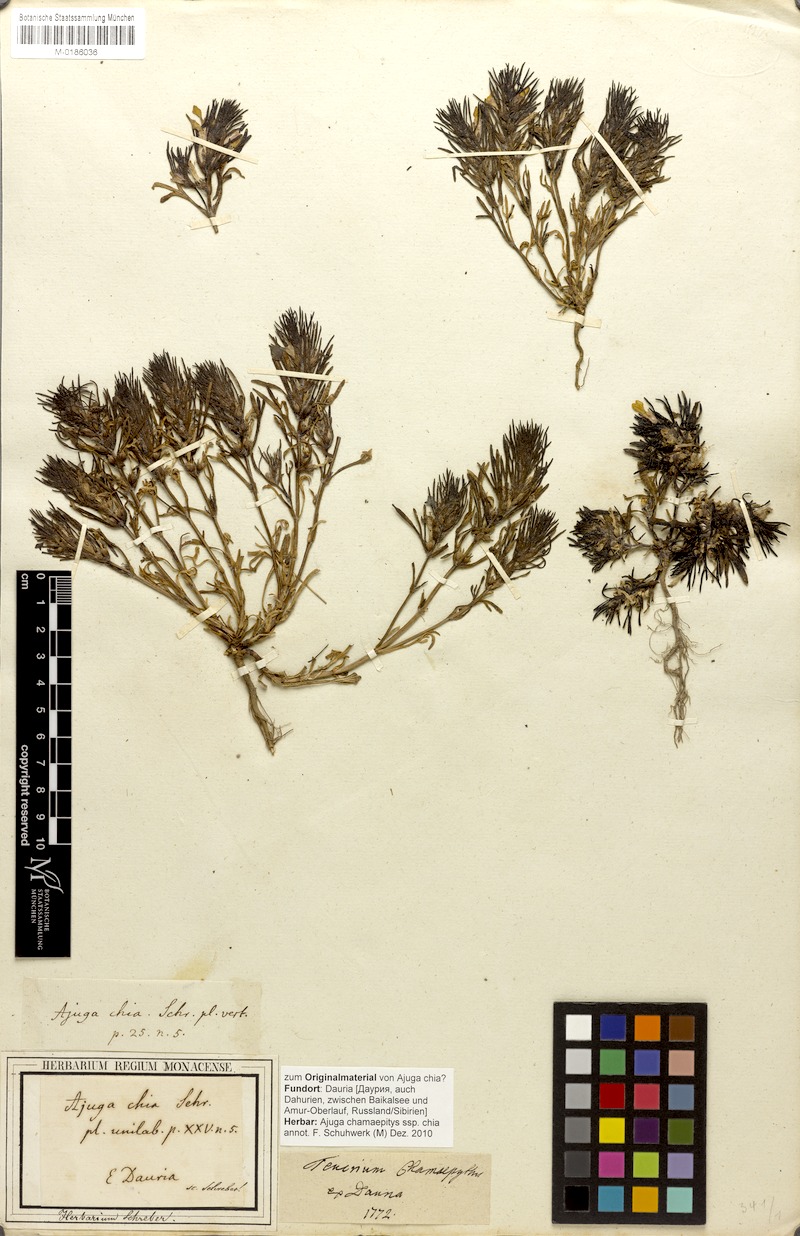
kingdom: Plantae
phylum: Tracheophyta
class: Magnoliopsida
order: Lamiales
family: Lamiaceae
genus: Ajuga
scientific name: Ajuga chamaepitys
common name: Ground-pine
